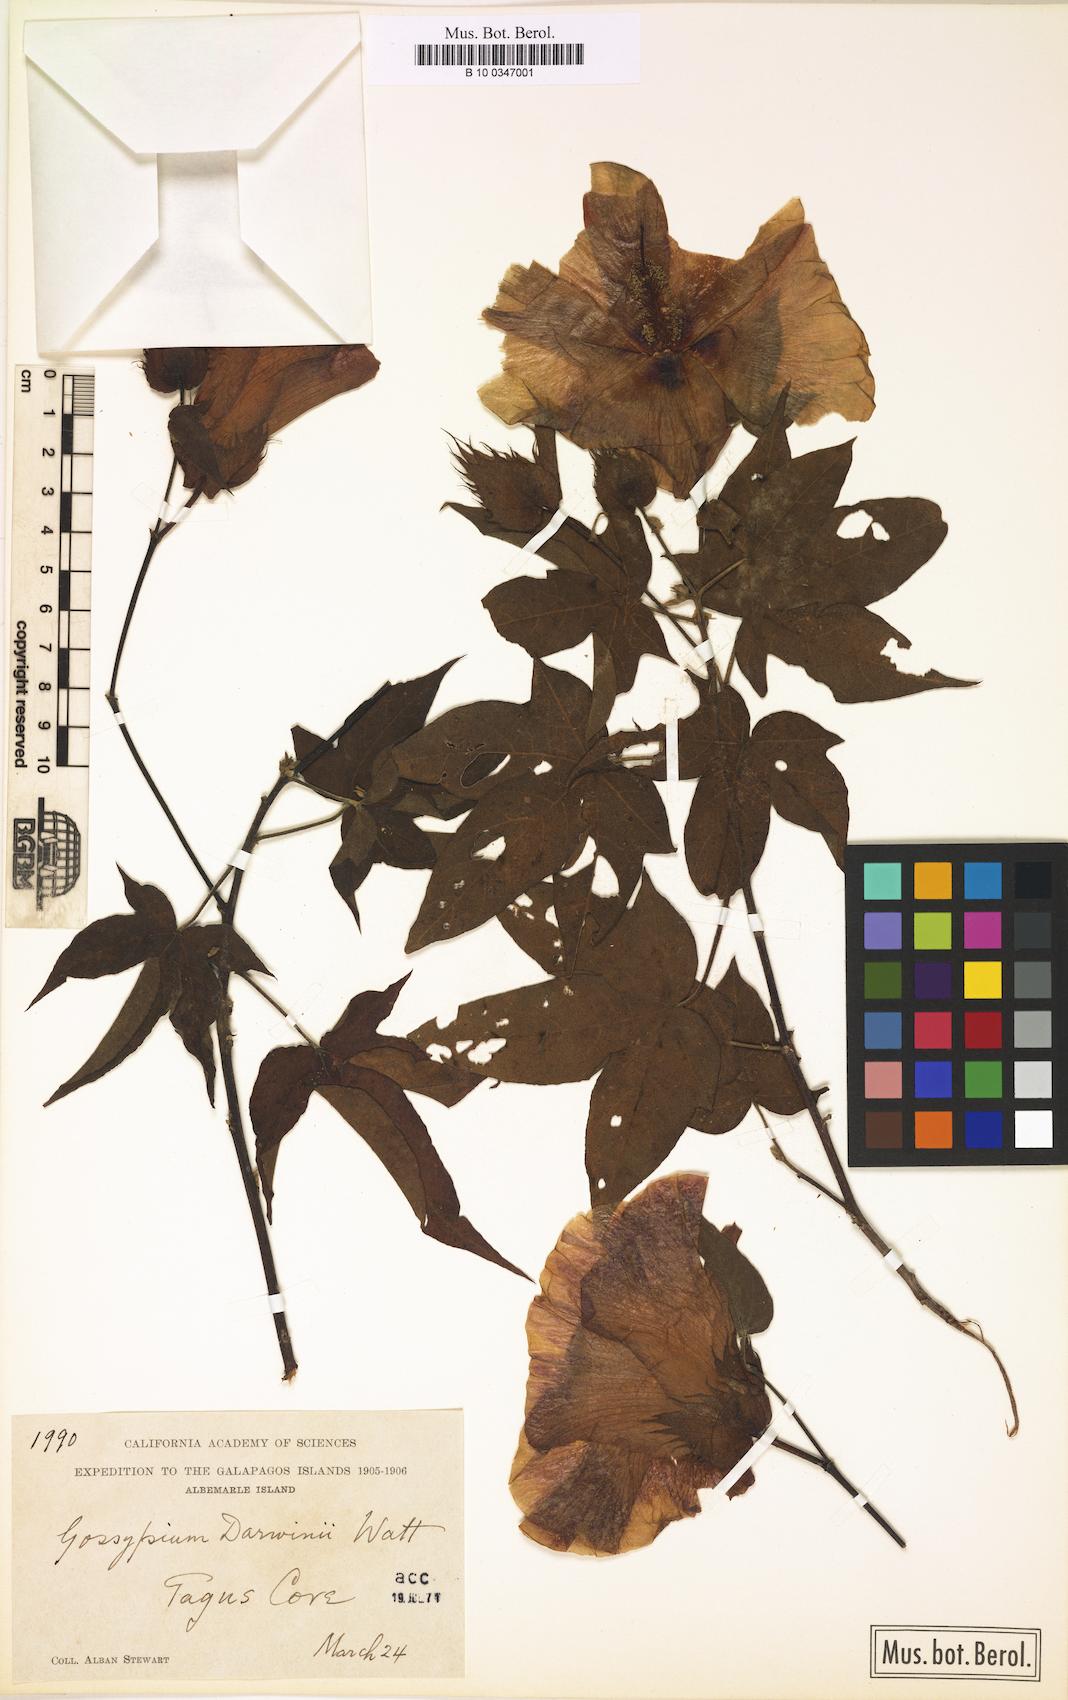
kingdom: Plantae
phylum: Tracheophyta
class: Magnoliopsida
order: Malvales
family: Malvaceae
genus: Gossypium
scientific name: Gossypium darwinii
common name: Darwin's cotton
